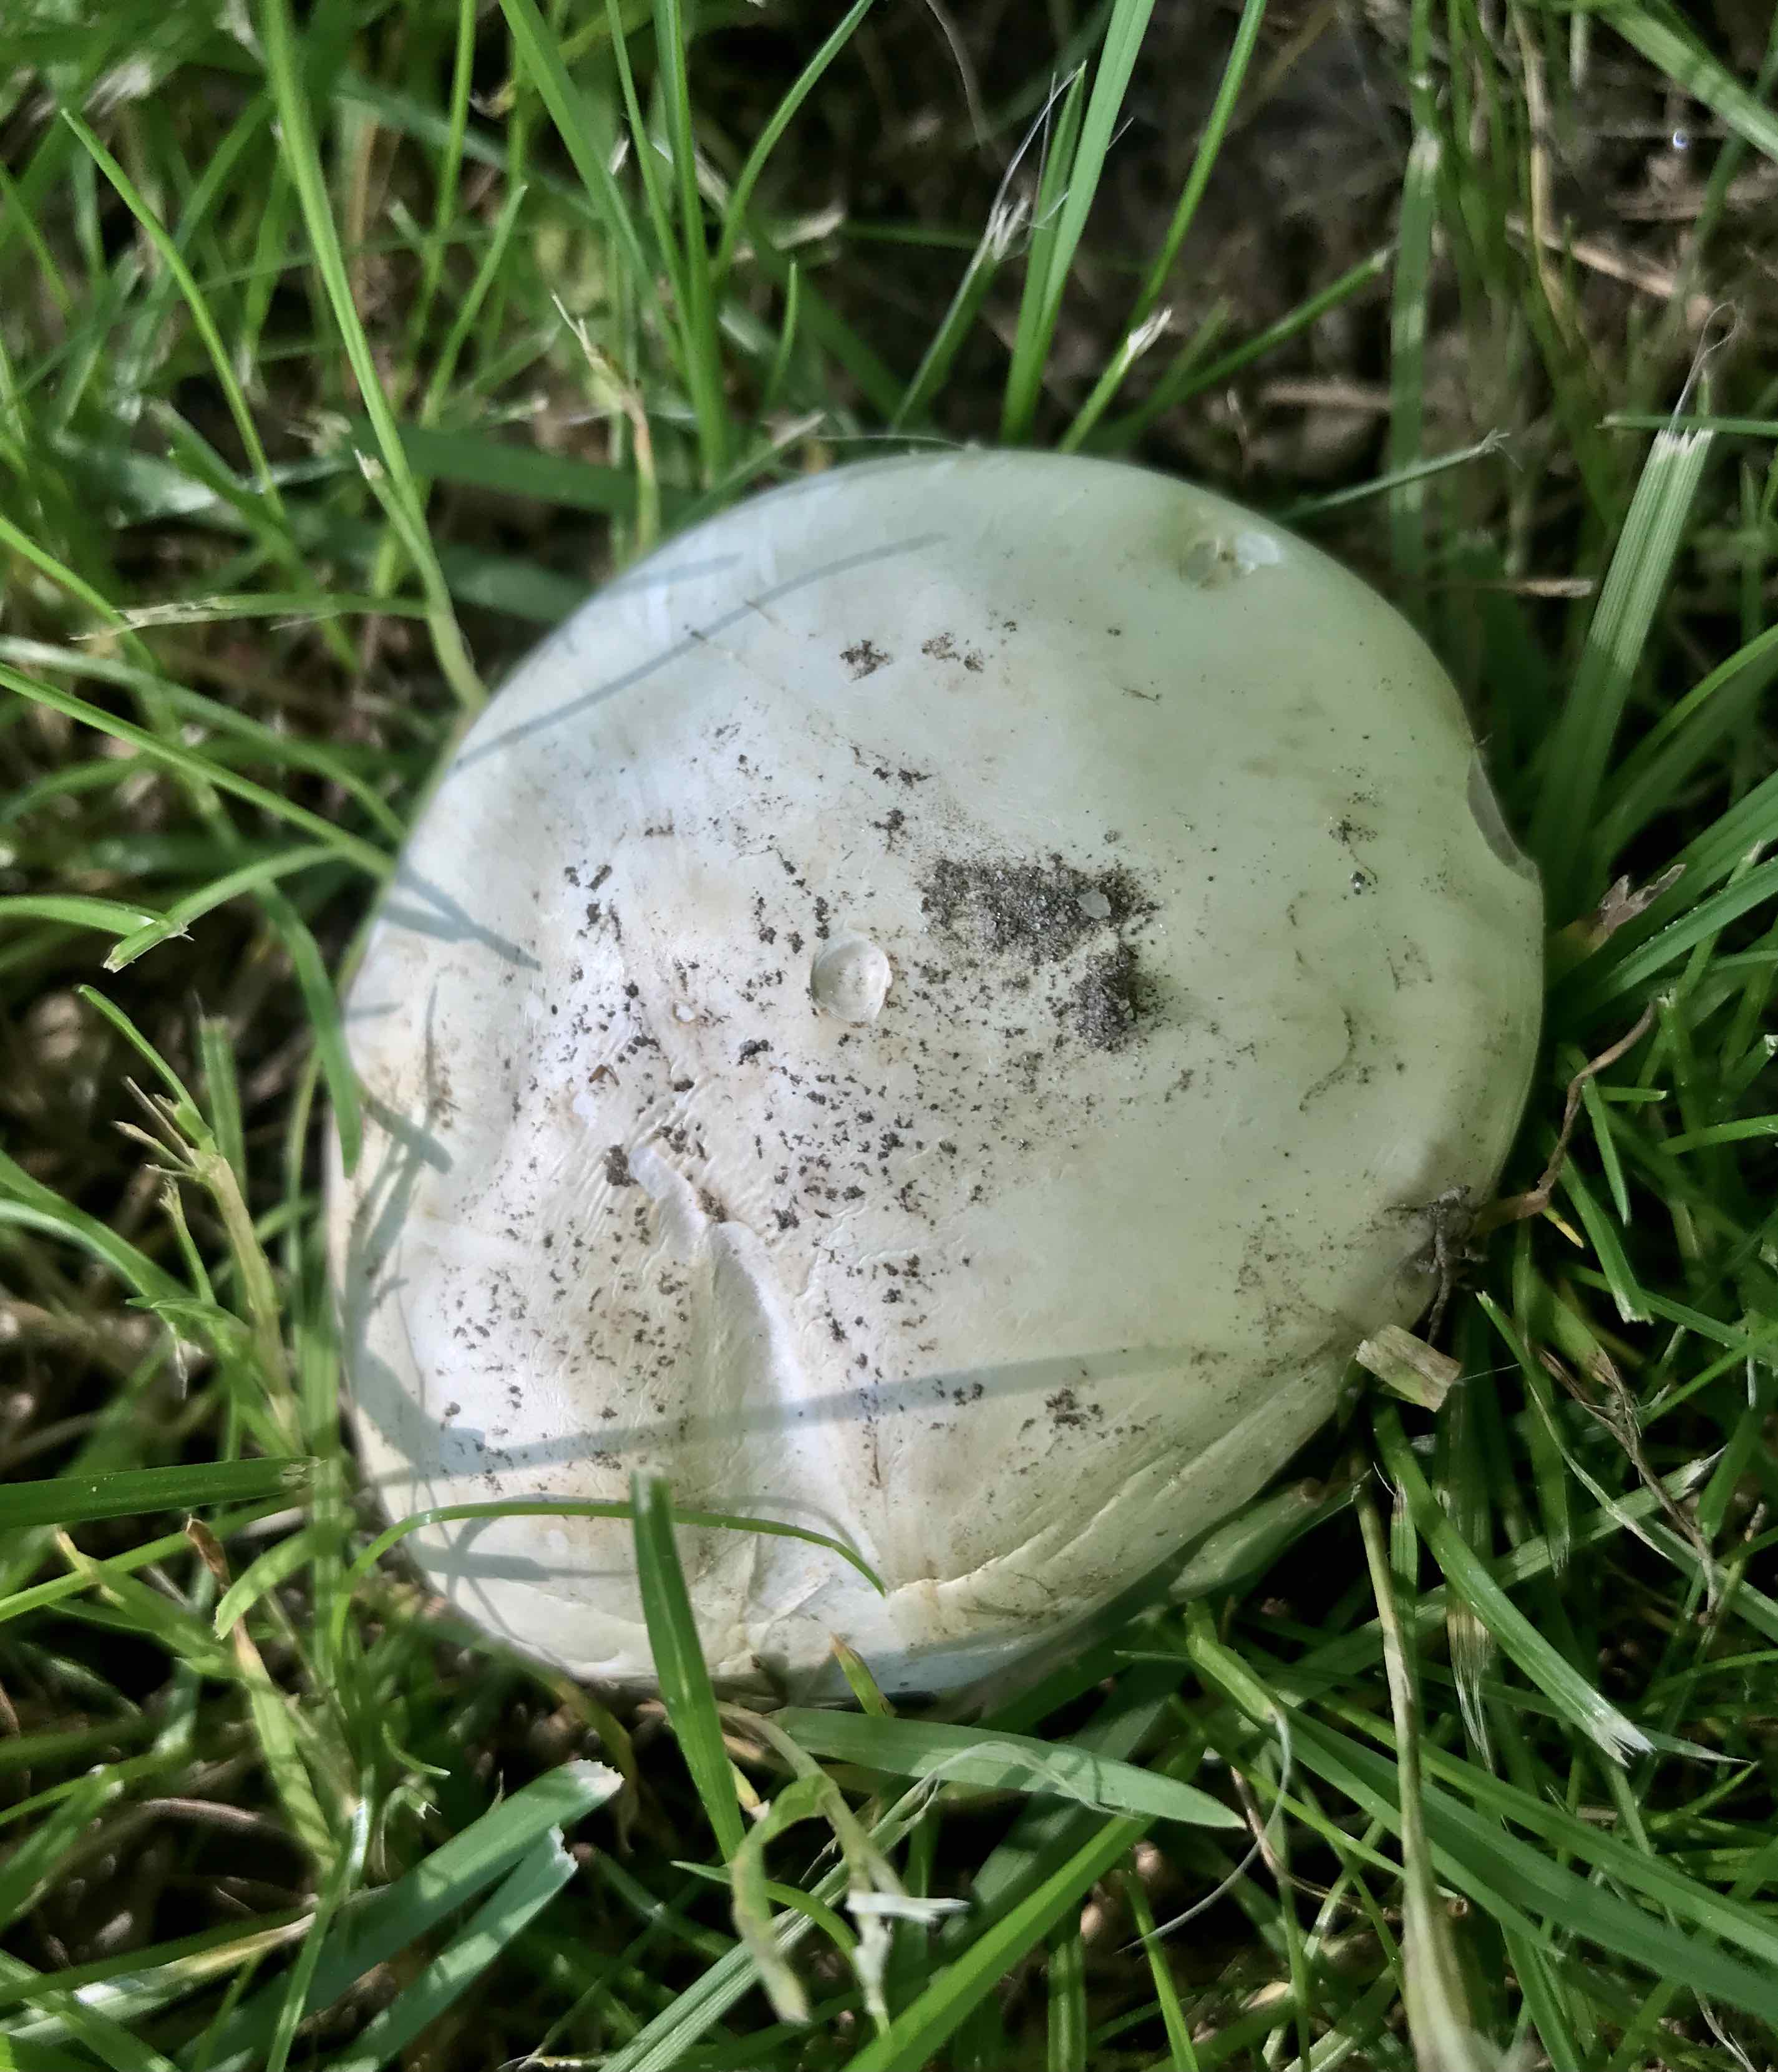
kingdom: Fungi
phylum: Basidiomycota
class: Agaricomycetes
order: Agaricales
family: Agaricaceae
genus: Agaricus
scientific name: Agaricus
